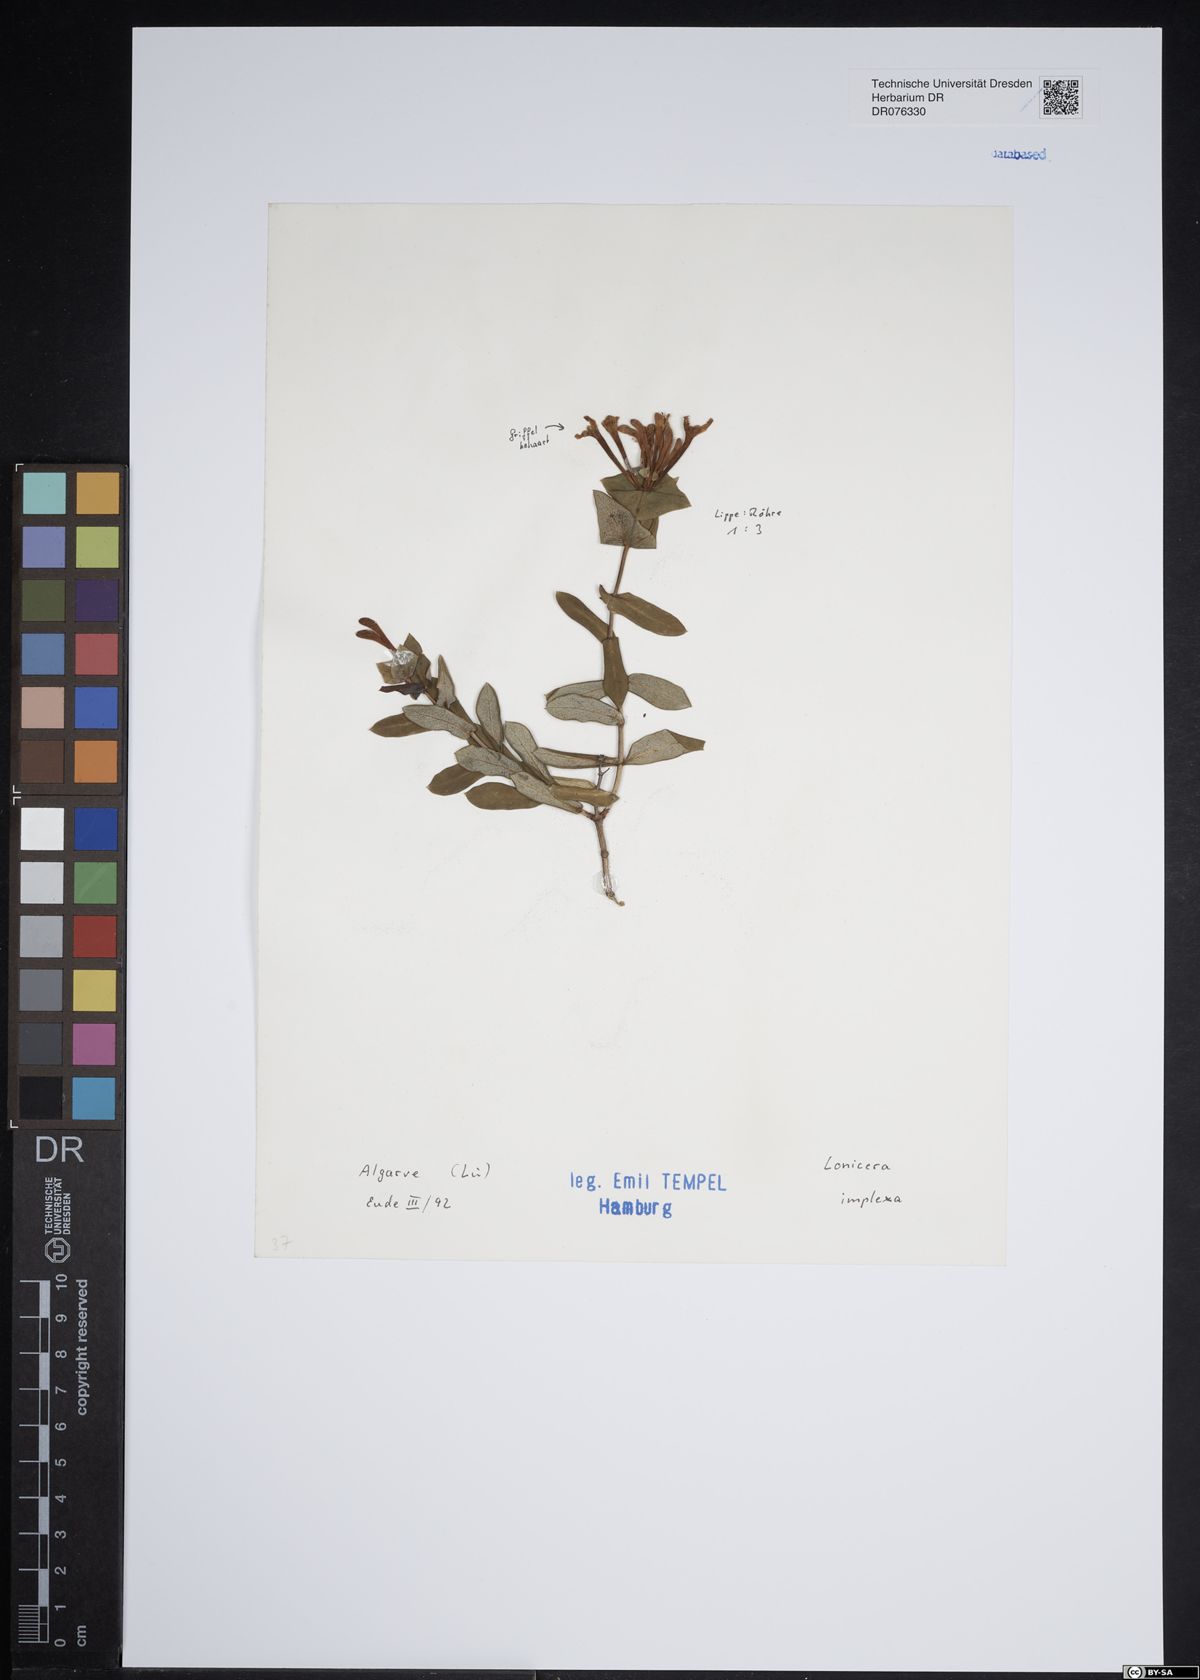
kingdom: Plantae
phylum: Tracheophyta
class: Magnoliopsida
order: Dipsacales
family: Caprifoliaceae
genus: Lonicera
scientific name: Lonicera implexa
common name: Minorca honeysuckle
